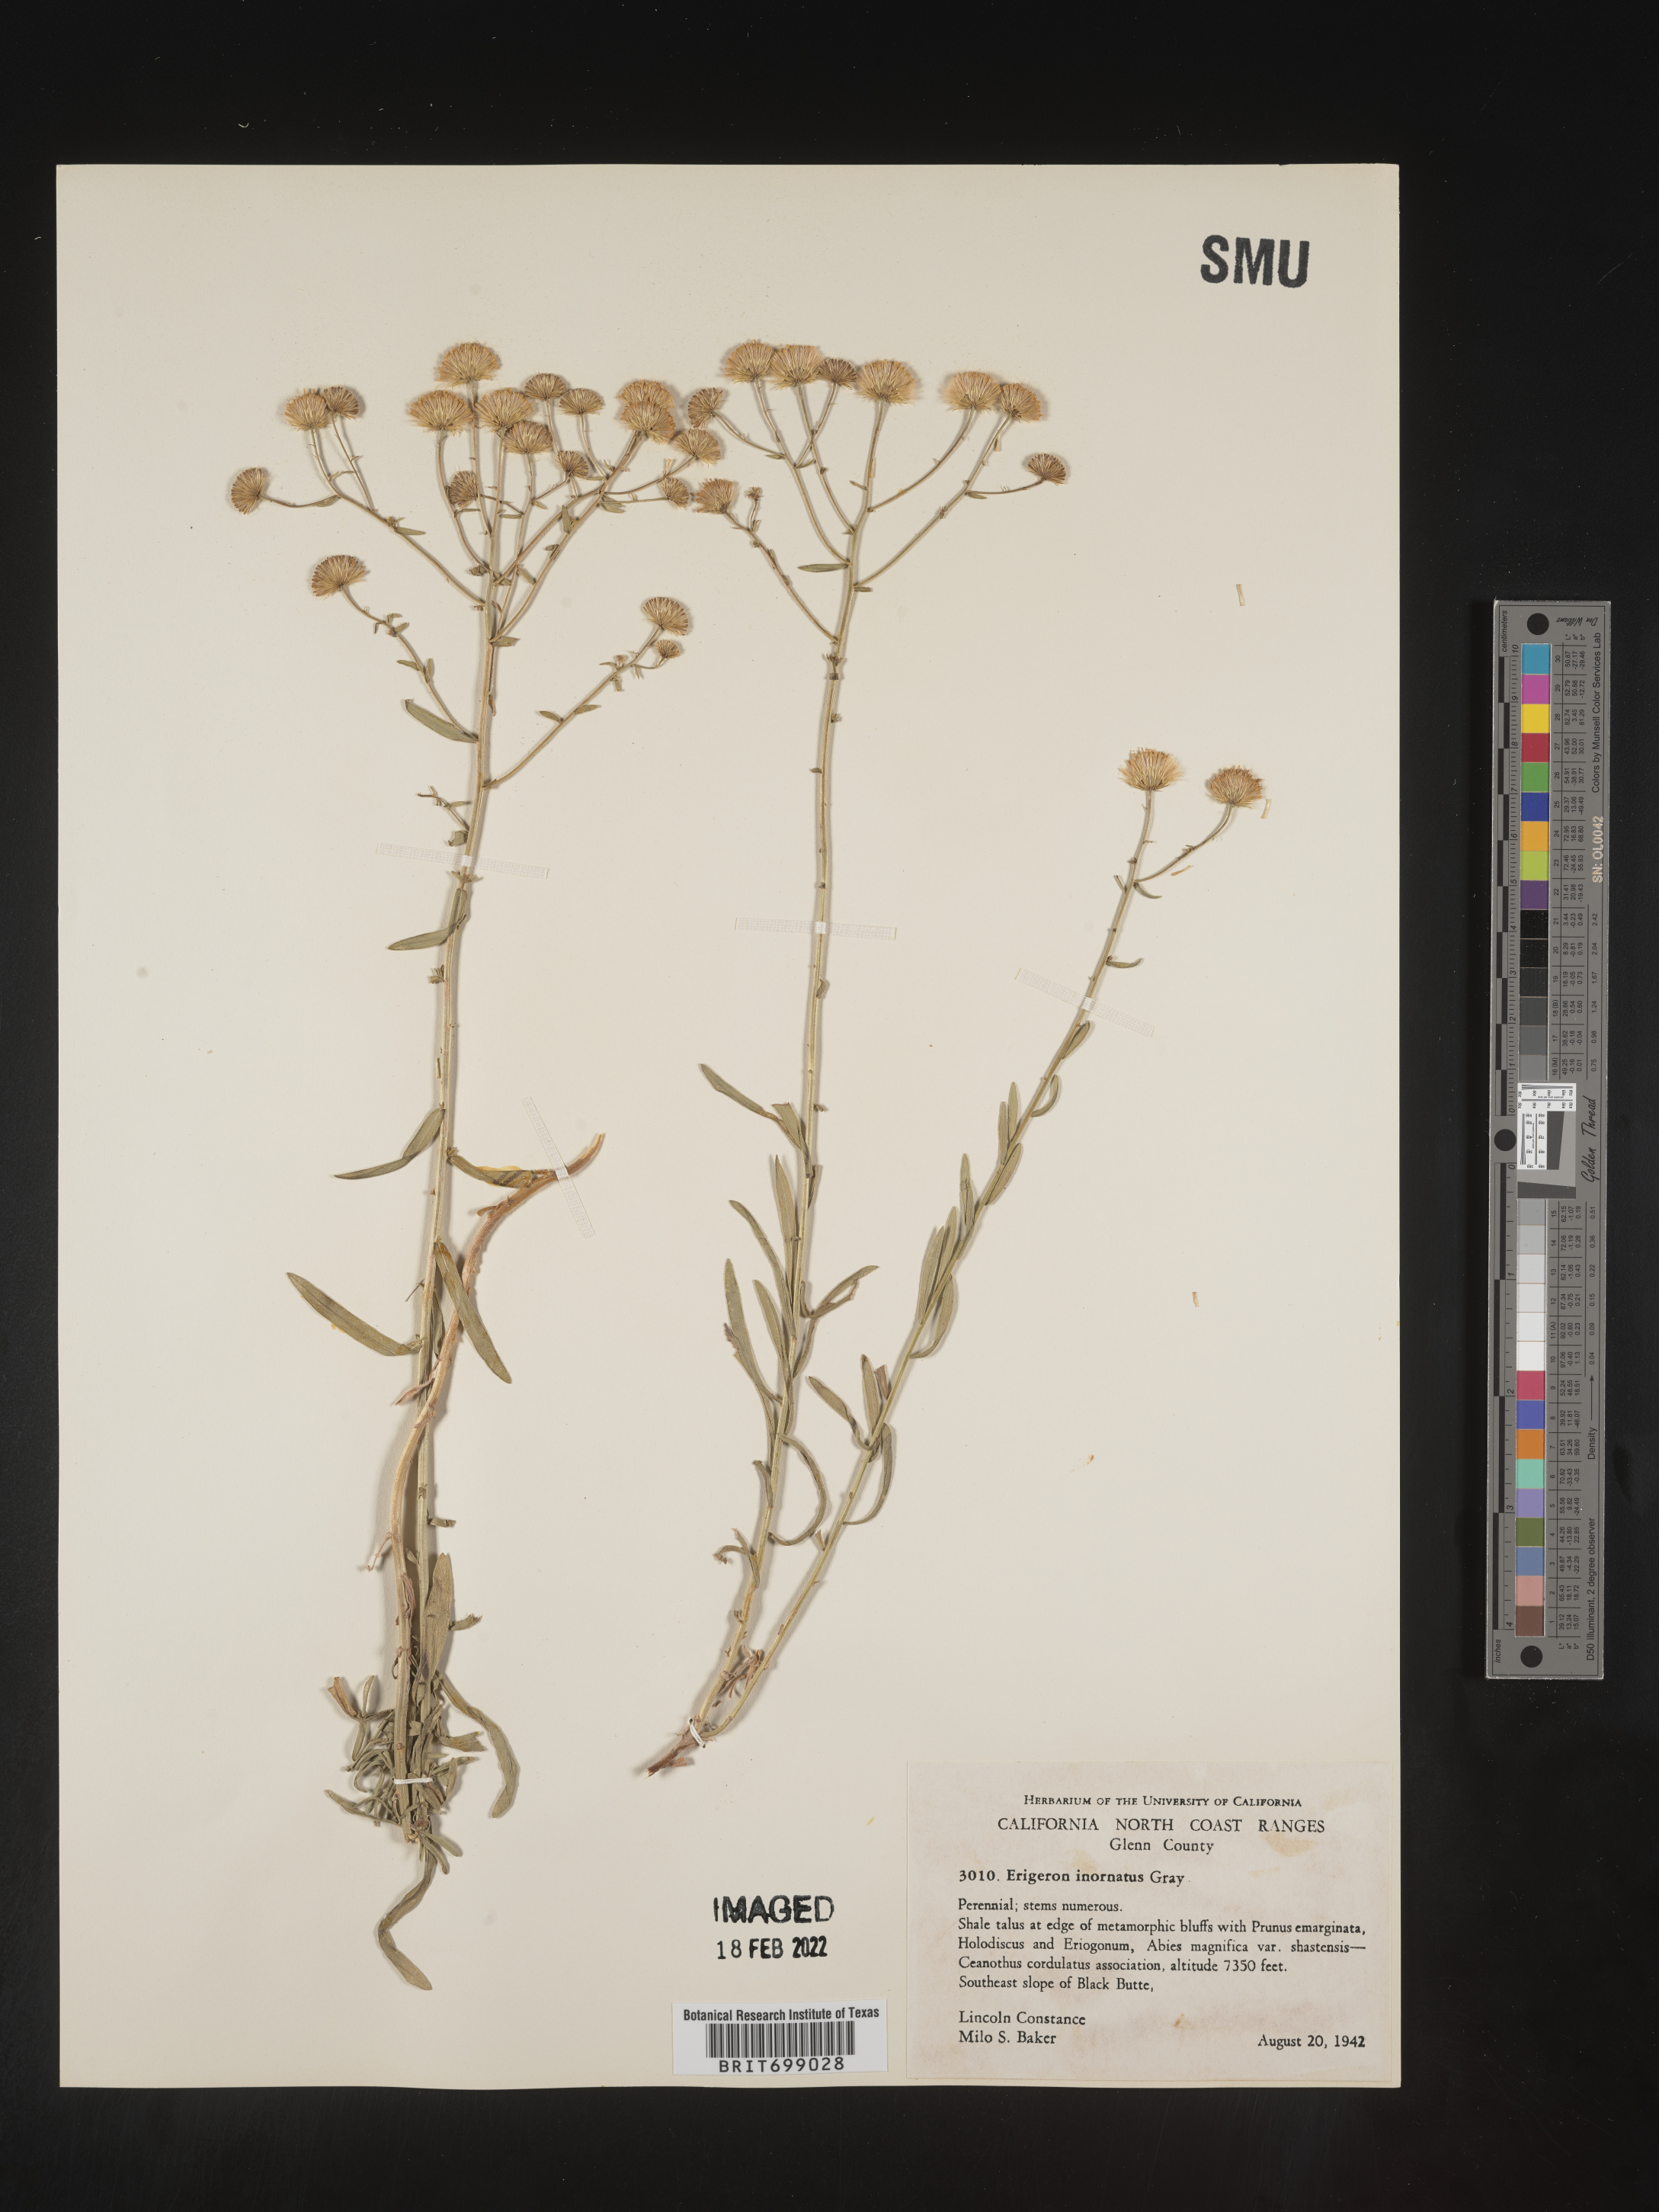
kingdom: Plantae
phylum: Tracheophyta
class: Magnoliopsida
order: Asterales
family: Asteraceae
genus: Erigeron
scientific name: Erigeron inornatus
